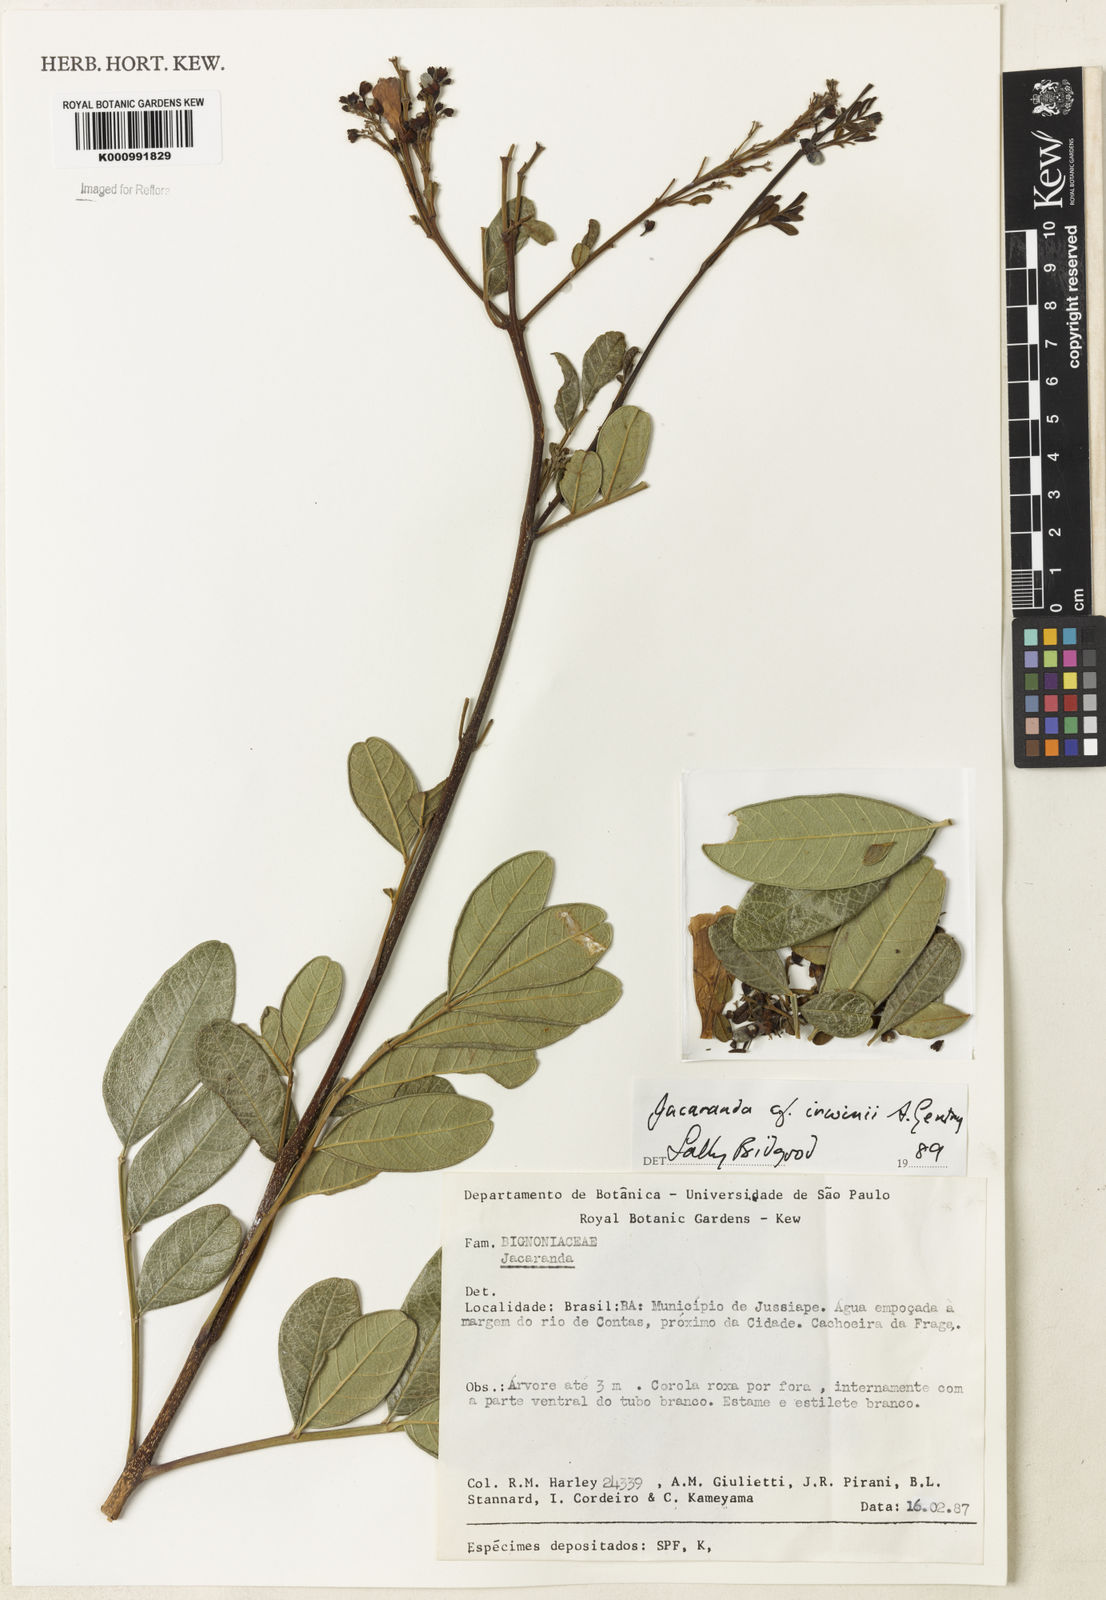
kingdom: Plantae
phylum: Tracheophyta
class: Magnoliopsida
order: Lamiales
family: Bignoniaceae
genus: Jacaranda
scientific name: Jacaranda irwinii
